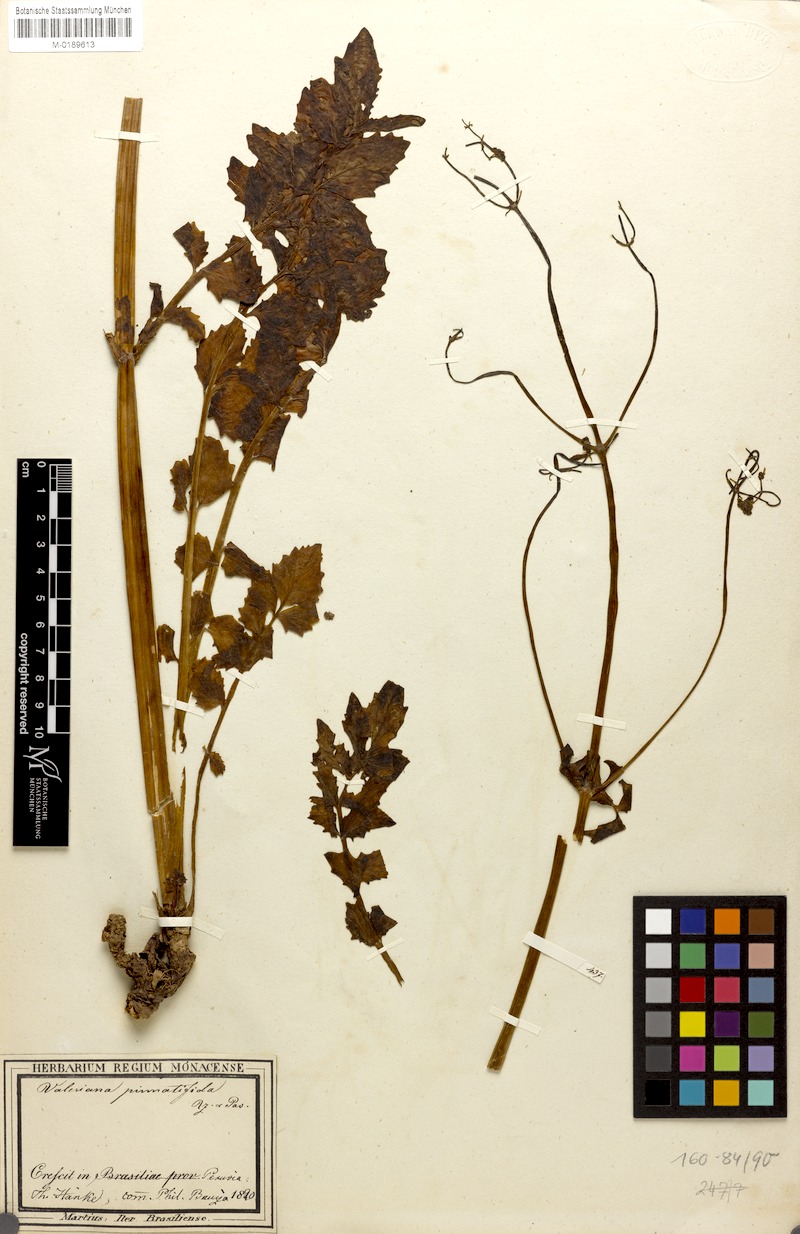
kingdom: Plantae
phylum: Tracheophyta
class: Magnoliopsida
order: Dipsacales
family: Caprifoliaceae
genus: Valeriana
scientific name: Valeriana pinnatifida
